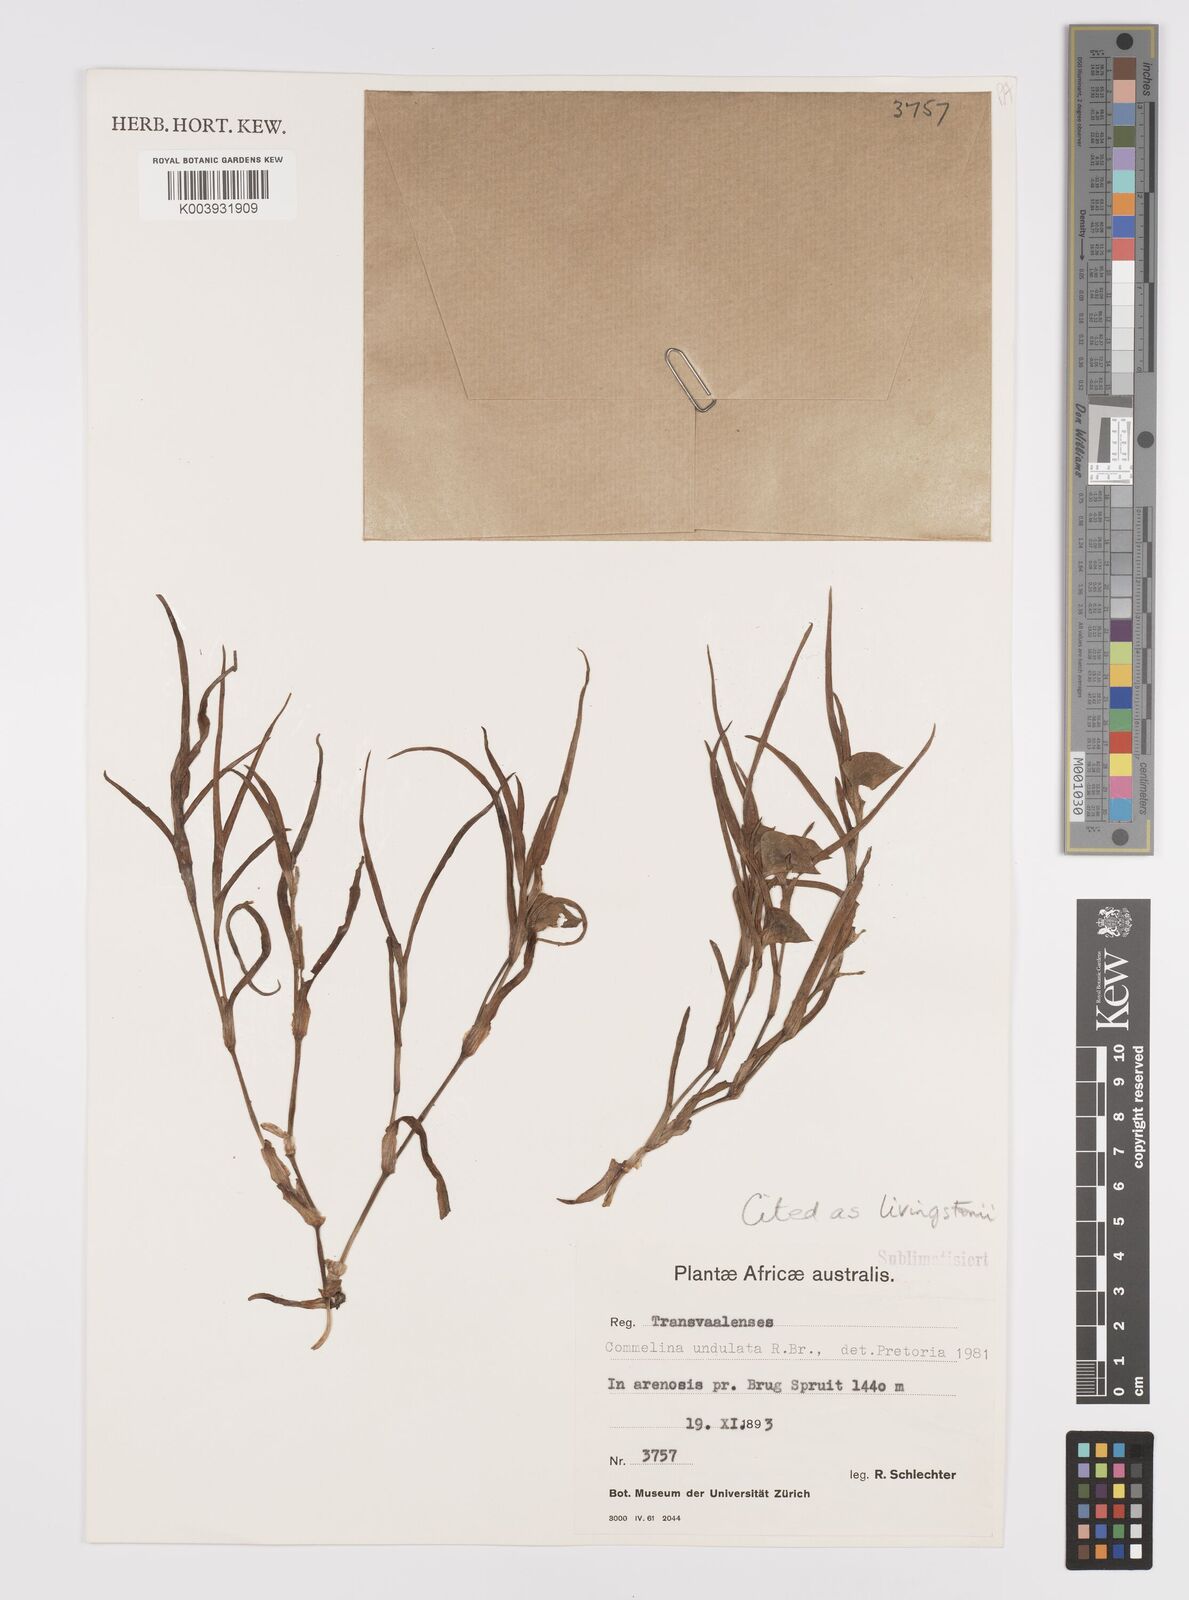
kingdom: Plantae
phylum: Tracheophyta
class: Liliopsida
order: Commelinales
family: Commelinaceae
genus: Commelina
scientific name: Commelina erecta
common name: Blousel blommetjie
